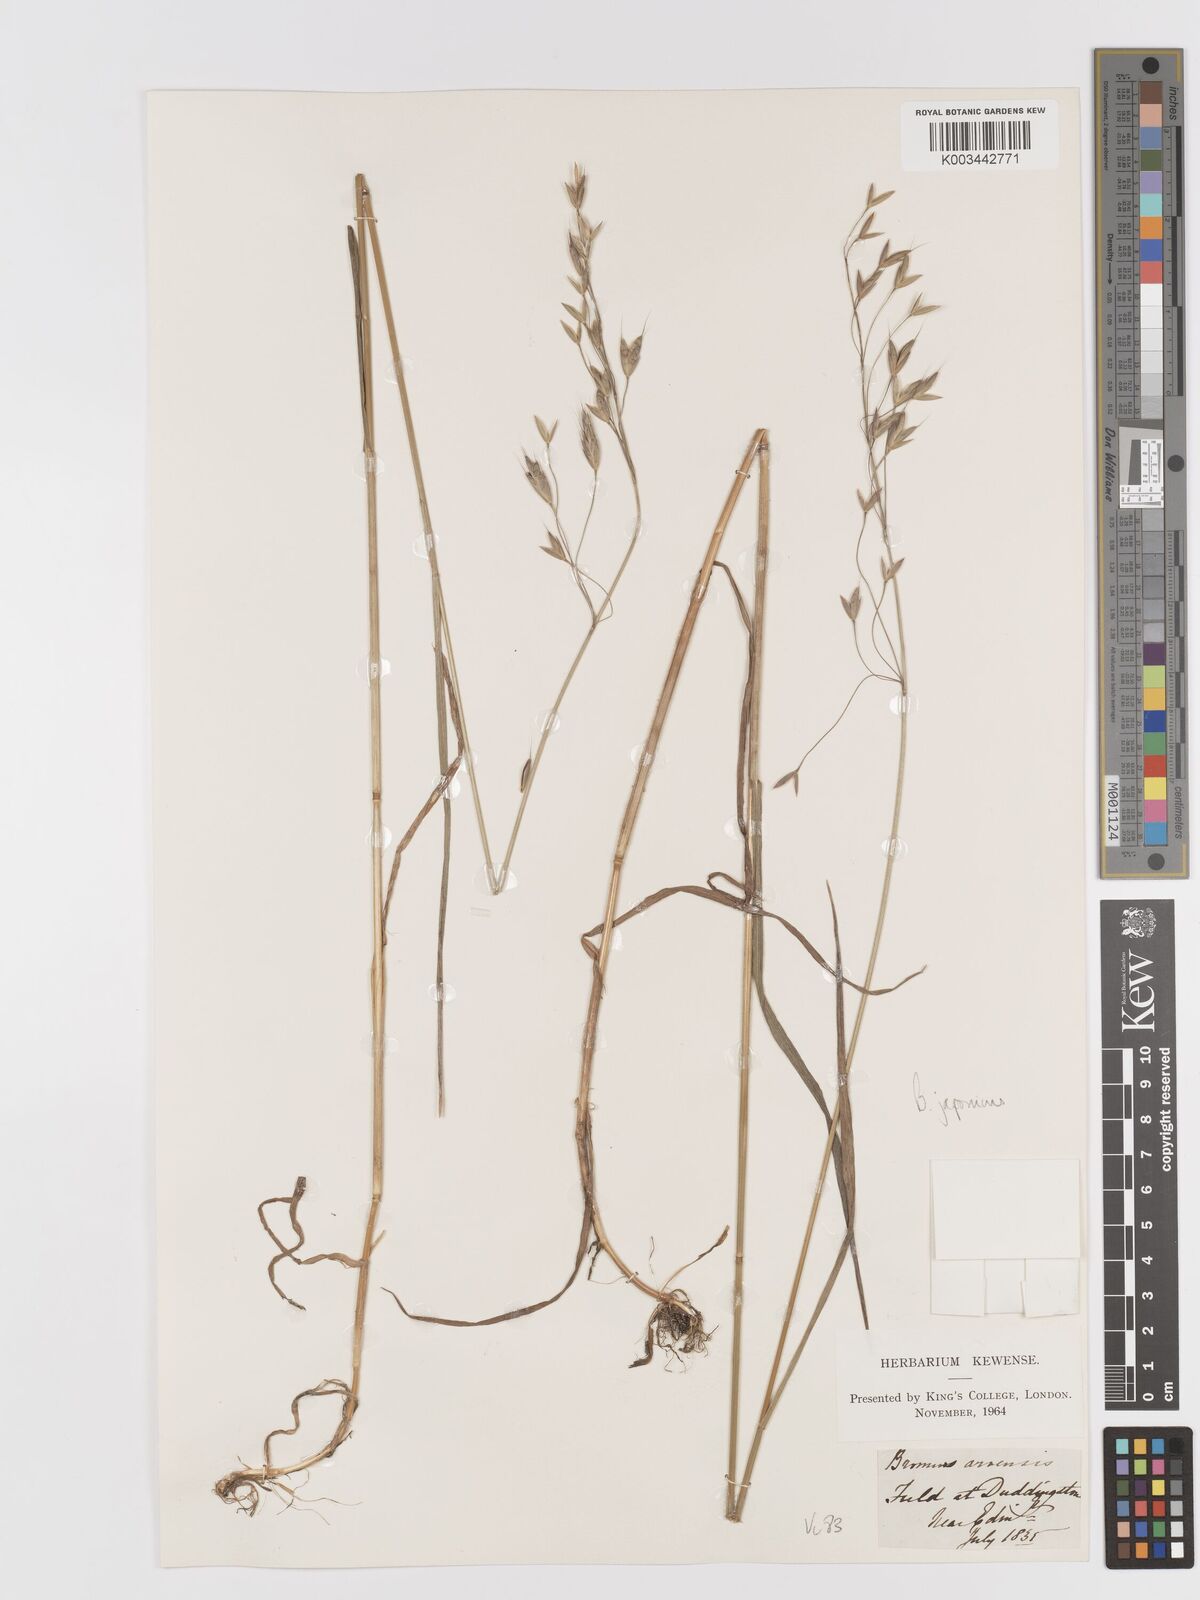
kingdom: Plantae
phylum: Tracheophyta
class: Liliopsida
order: Poales
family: Poaceae
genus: Bromus
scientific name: Bromus japonicus
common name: Japanese brome
